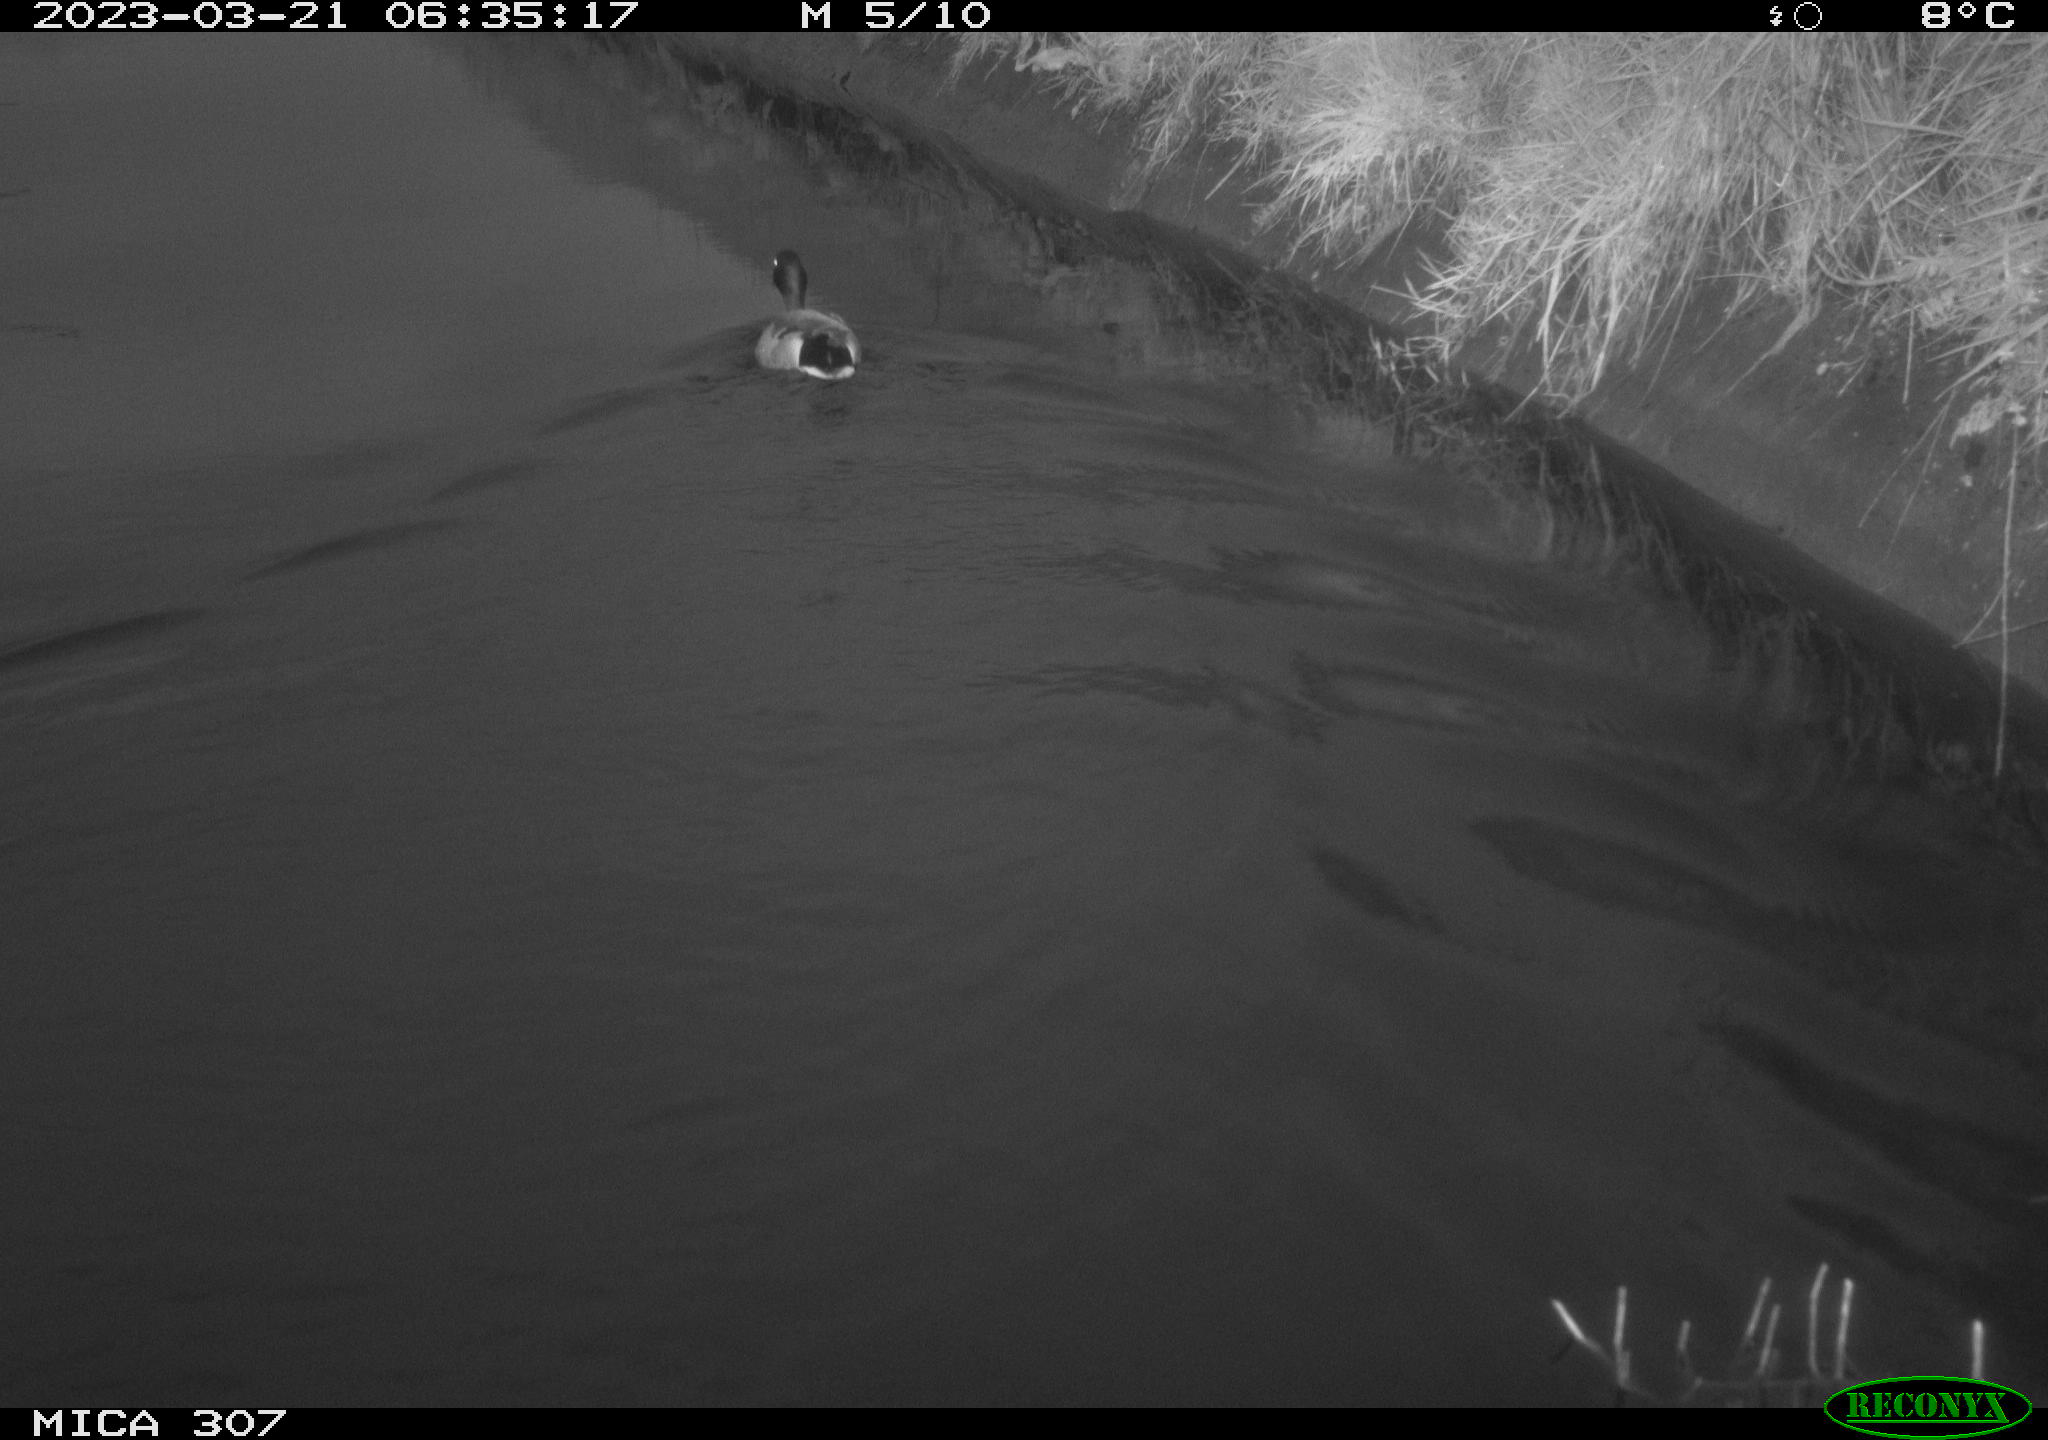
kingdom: Animalia
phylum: Chordata
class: Aves
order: Anseriformes
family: Anatidae
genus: Anas
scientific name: Anas
